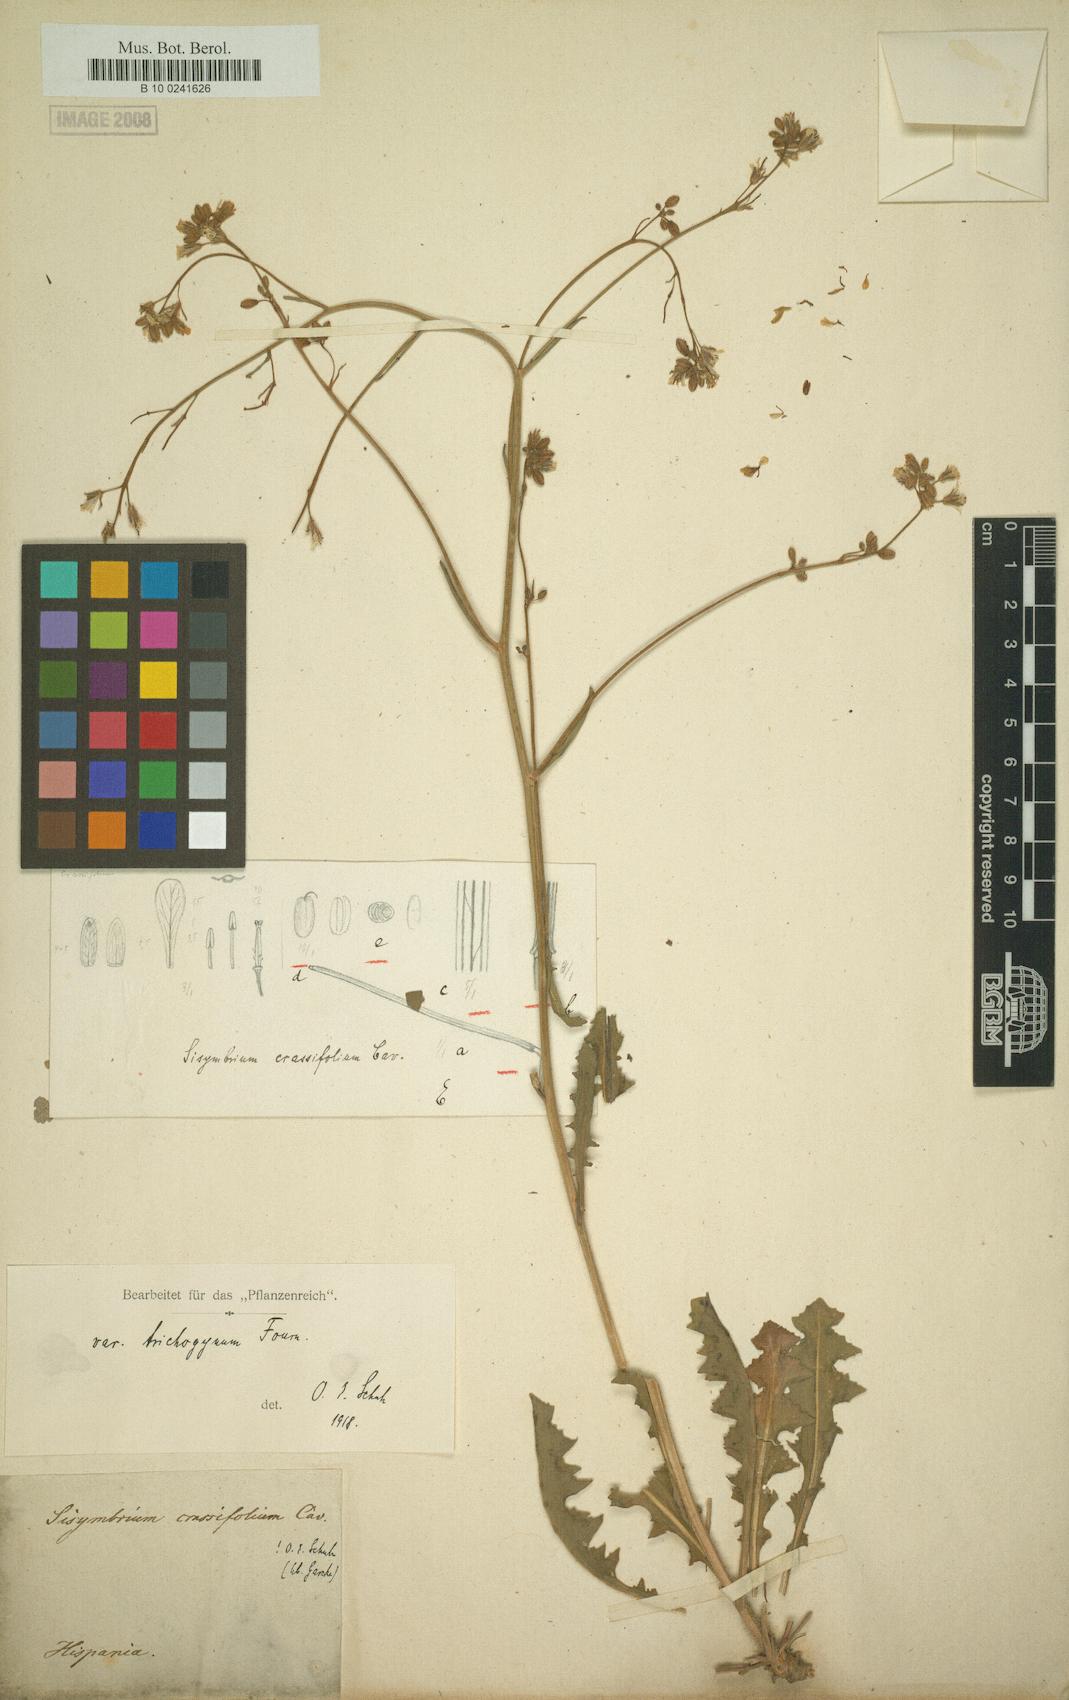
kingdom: Plantae
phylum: Tracheophyta
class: Magnoliopsida
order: Brassicales
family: Brassicaceae
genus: Sisymbrium
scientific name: Sisymbrium crassifolium
